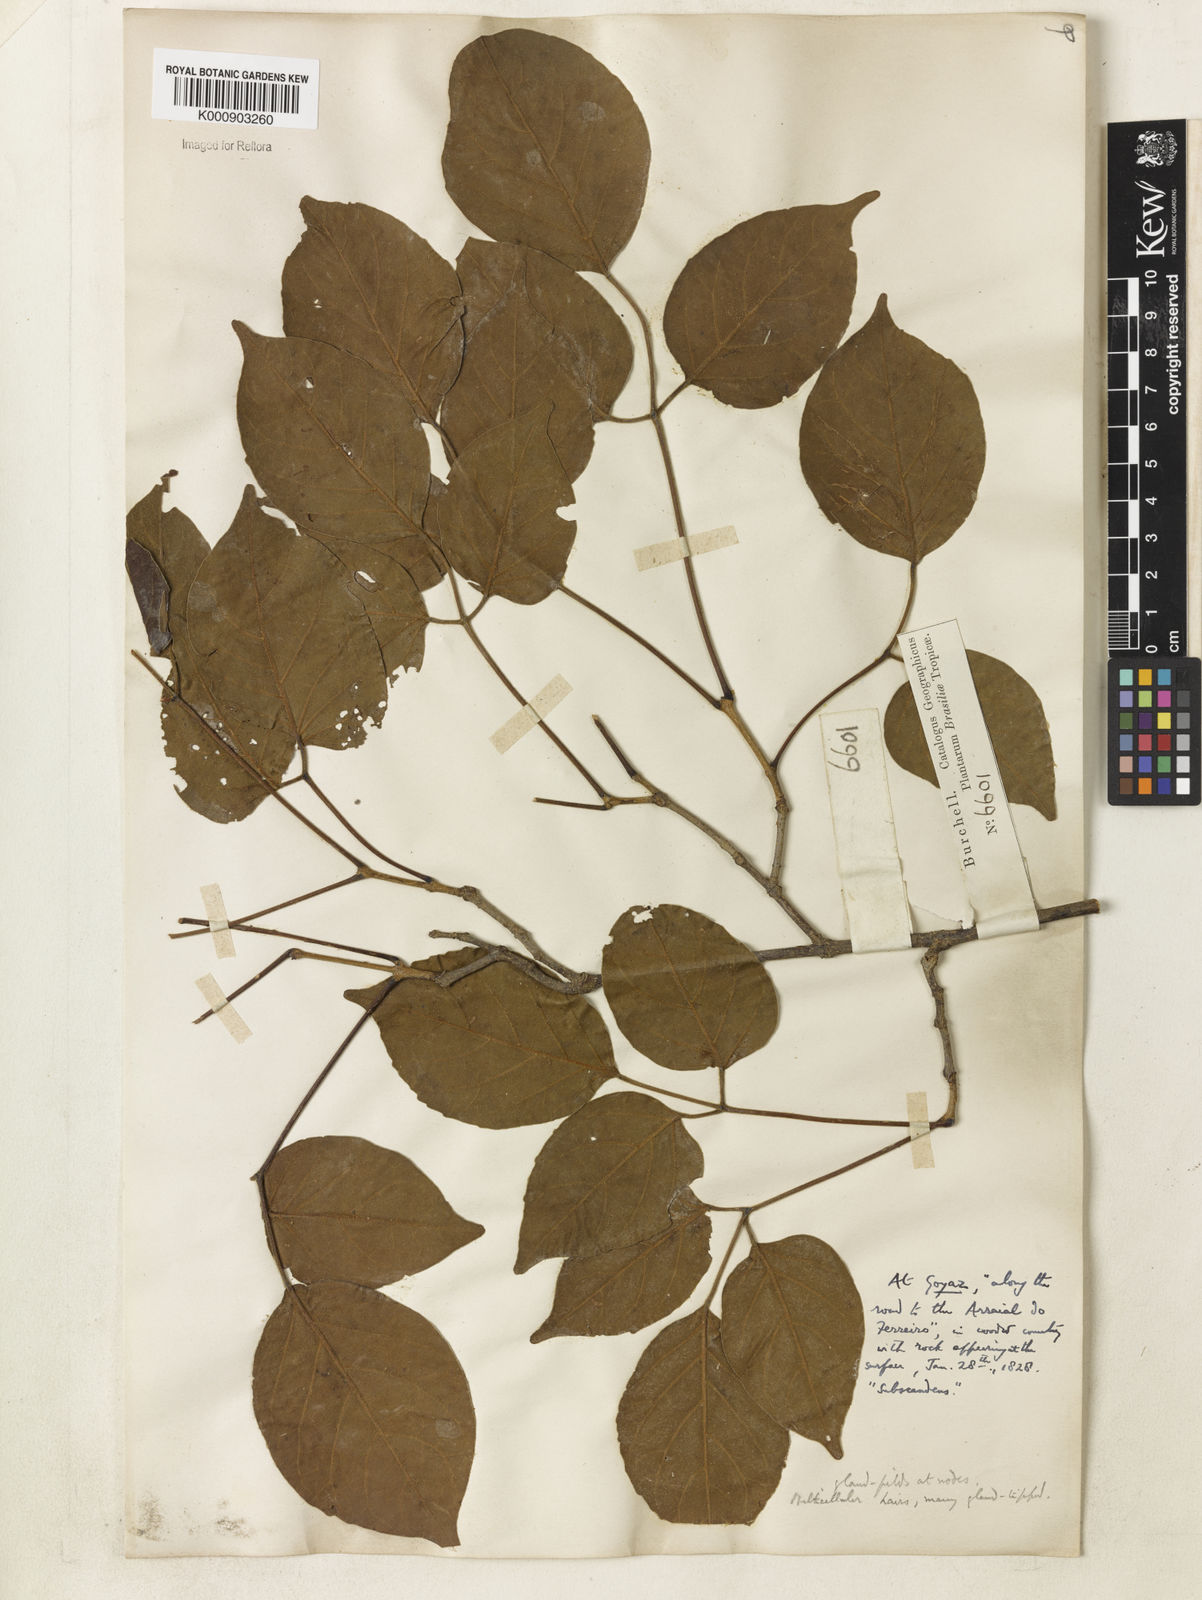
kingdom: Plantae
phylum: Tracheophyta
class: Magnoliopsida
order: Lamiales
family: Bignoniaceae
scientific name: Bignoniaceae
